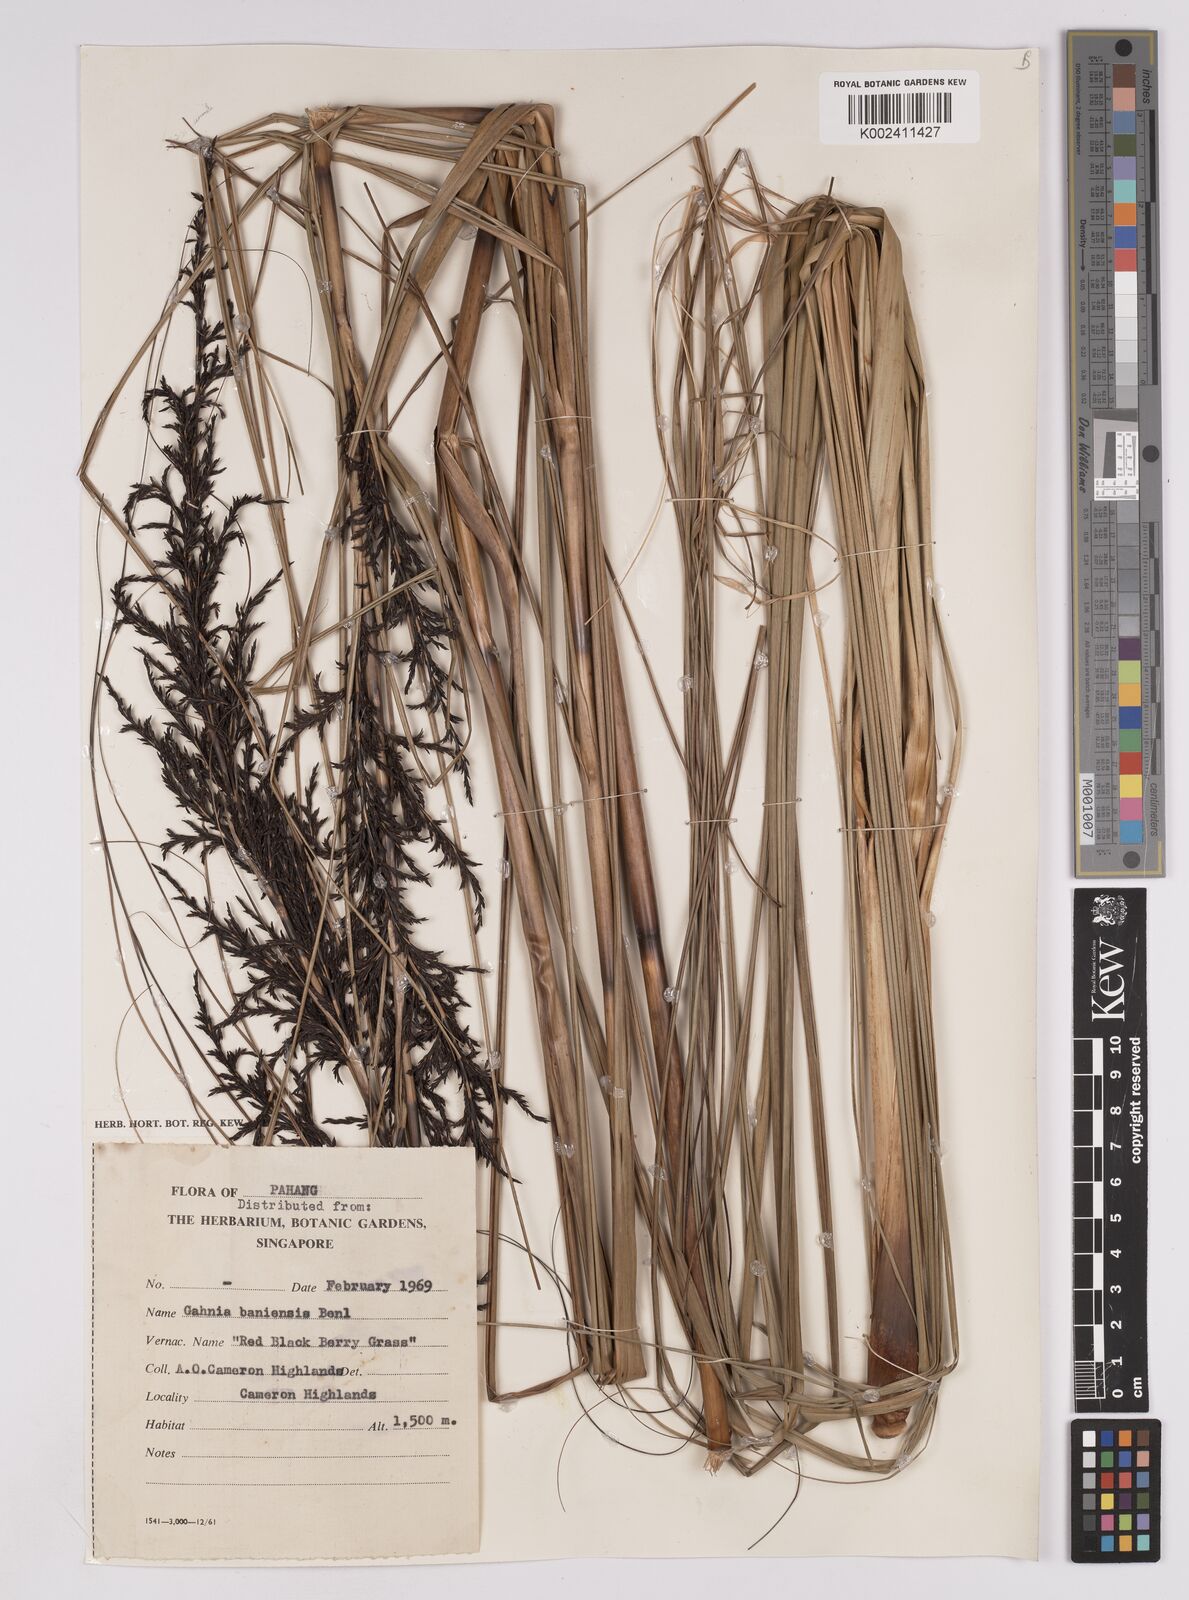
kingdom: Plantae
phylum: Tracheophyta
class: Liliopsida
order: Poales
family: Cyperaceae
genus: Gahnia
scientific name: Gahnia baniensis
